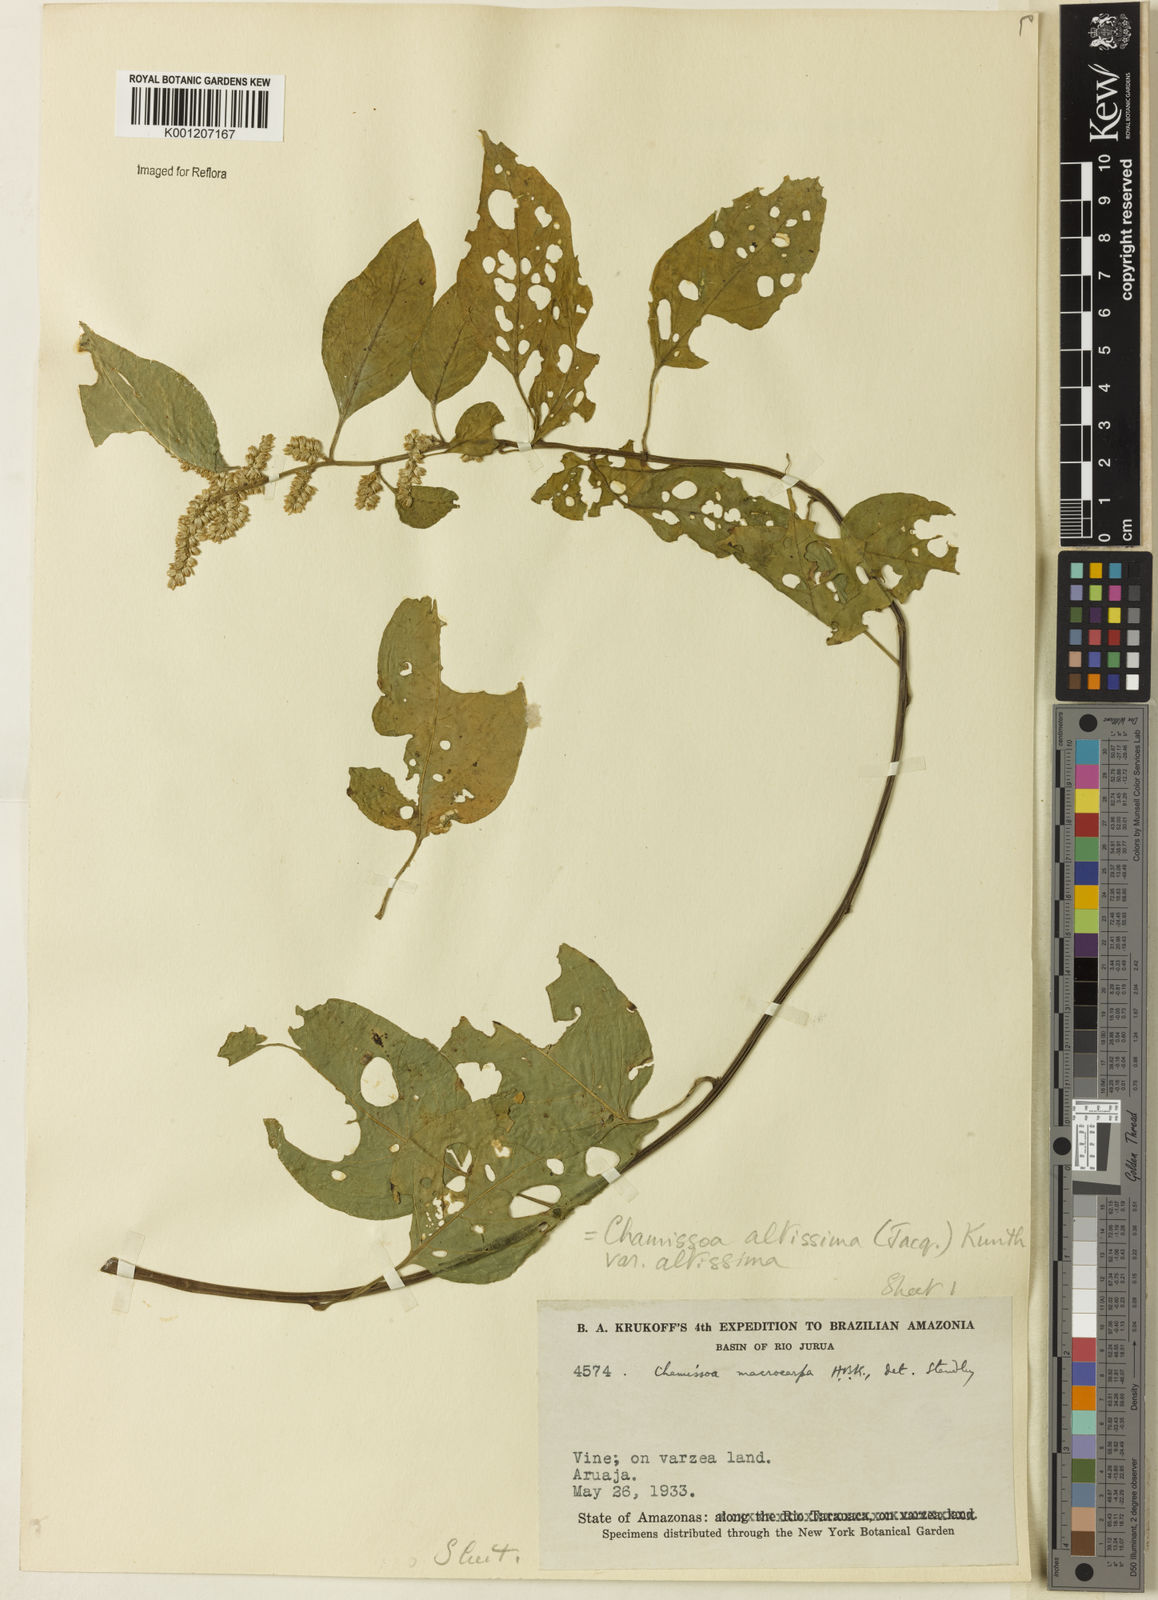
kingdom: Plantae
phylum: Tracheophyta
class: Magnoliopsida
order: Caryophyllales
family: Amaranthaceae
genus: Chamissoa
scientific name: Chamissoa altissima
